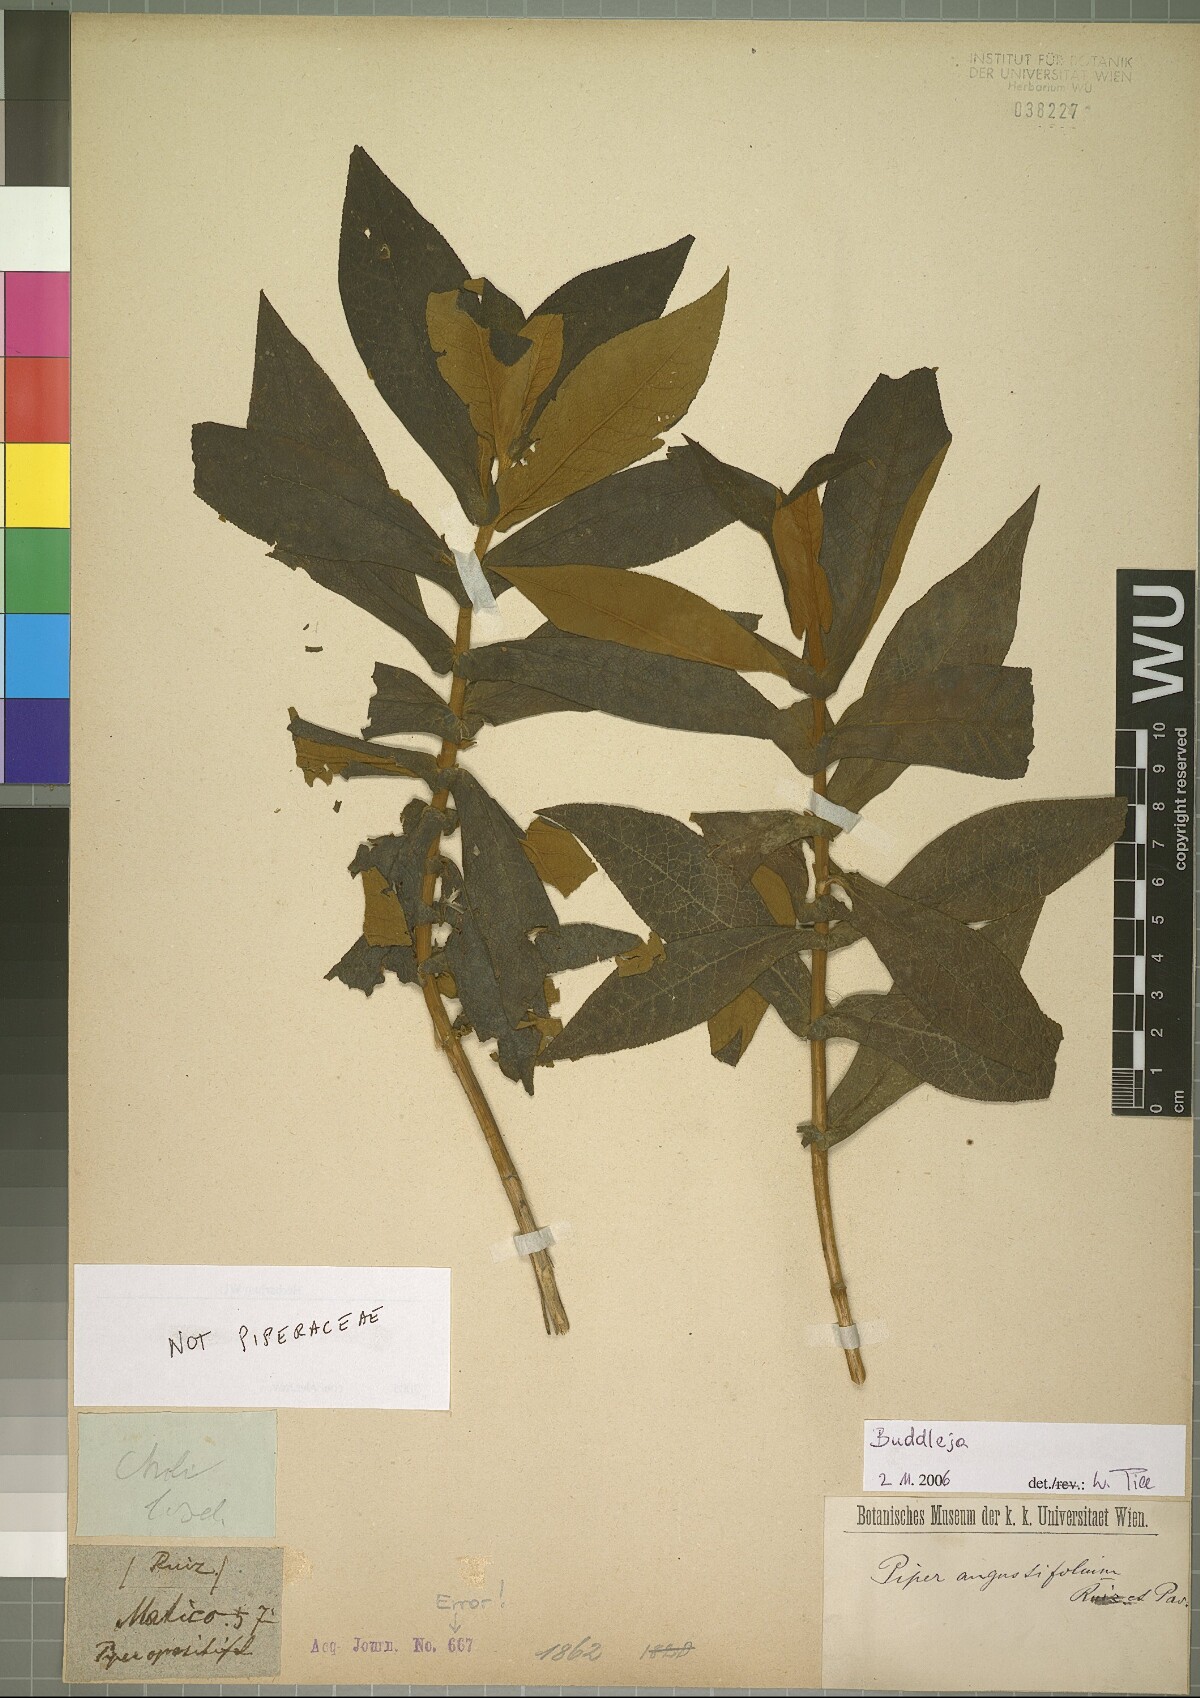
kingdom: Plantae
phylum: Tracheophyta
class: Magnoliopsida
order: Lamiales
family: Scrophulariaceae
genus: Buddleja
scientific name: Buddleja
